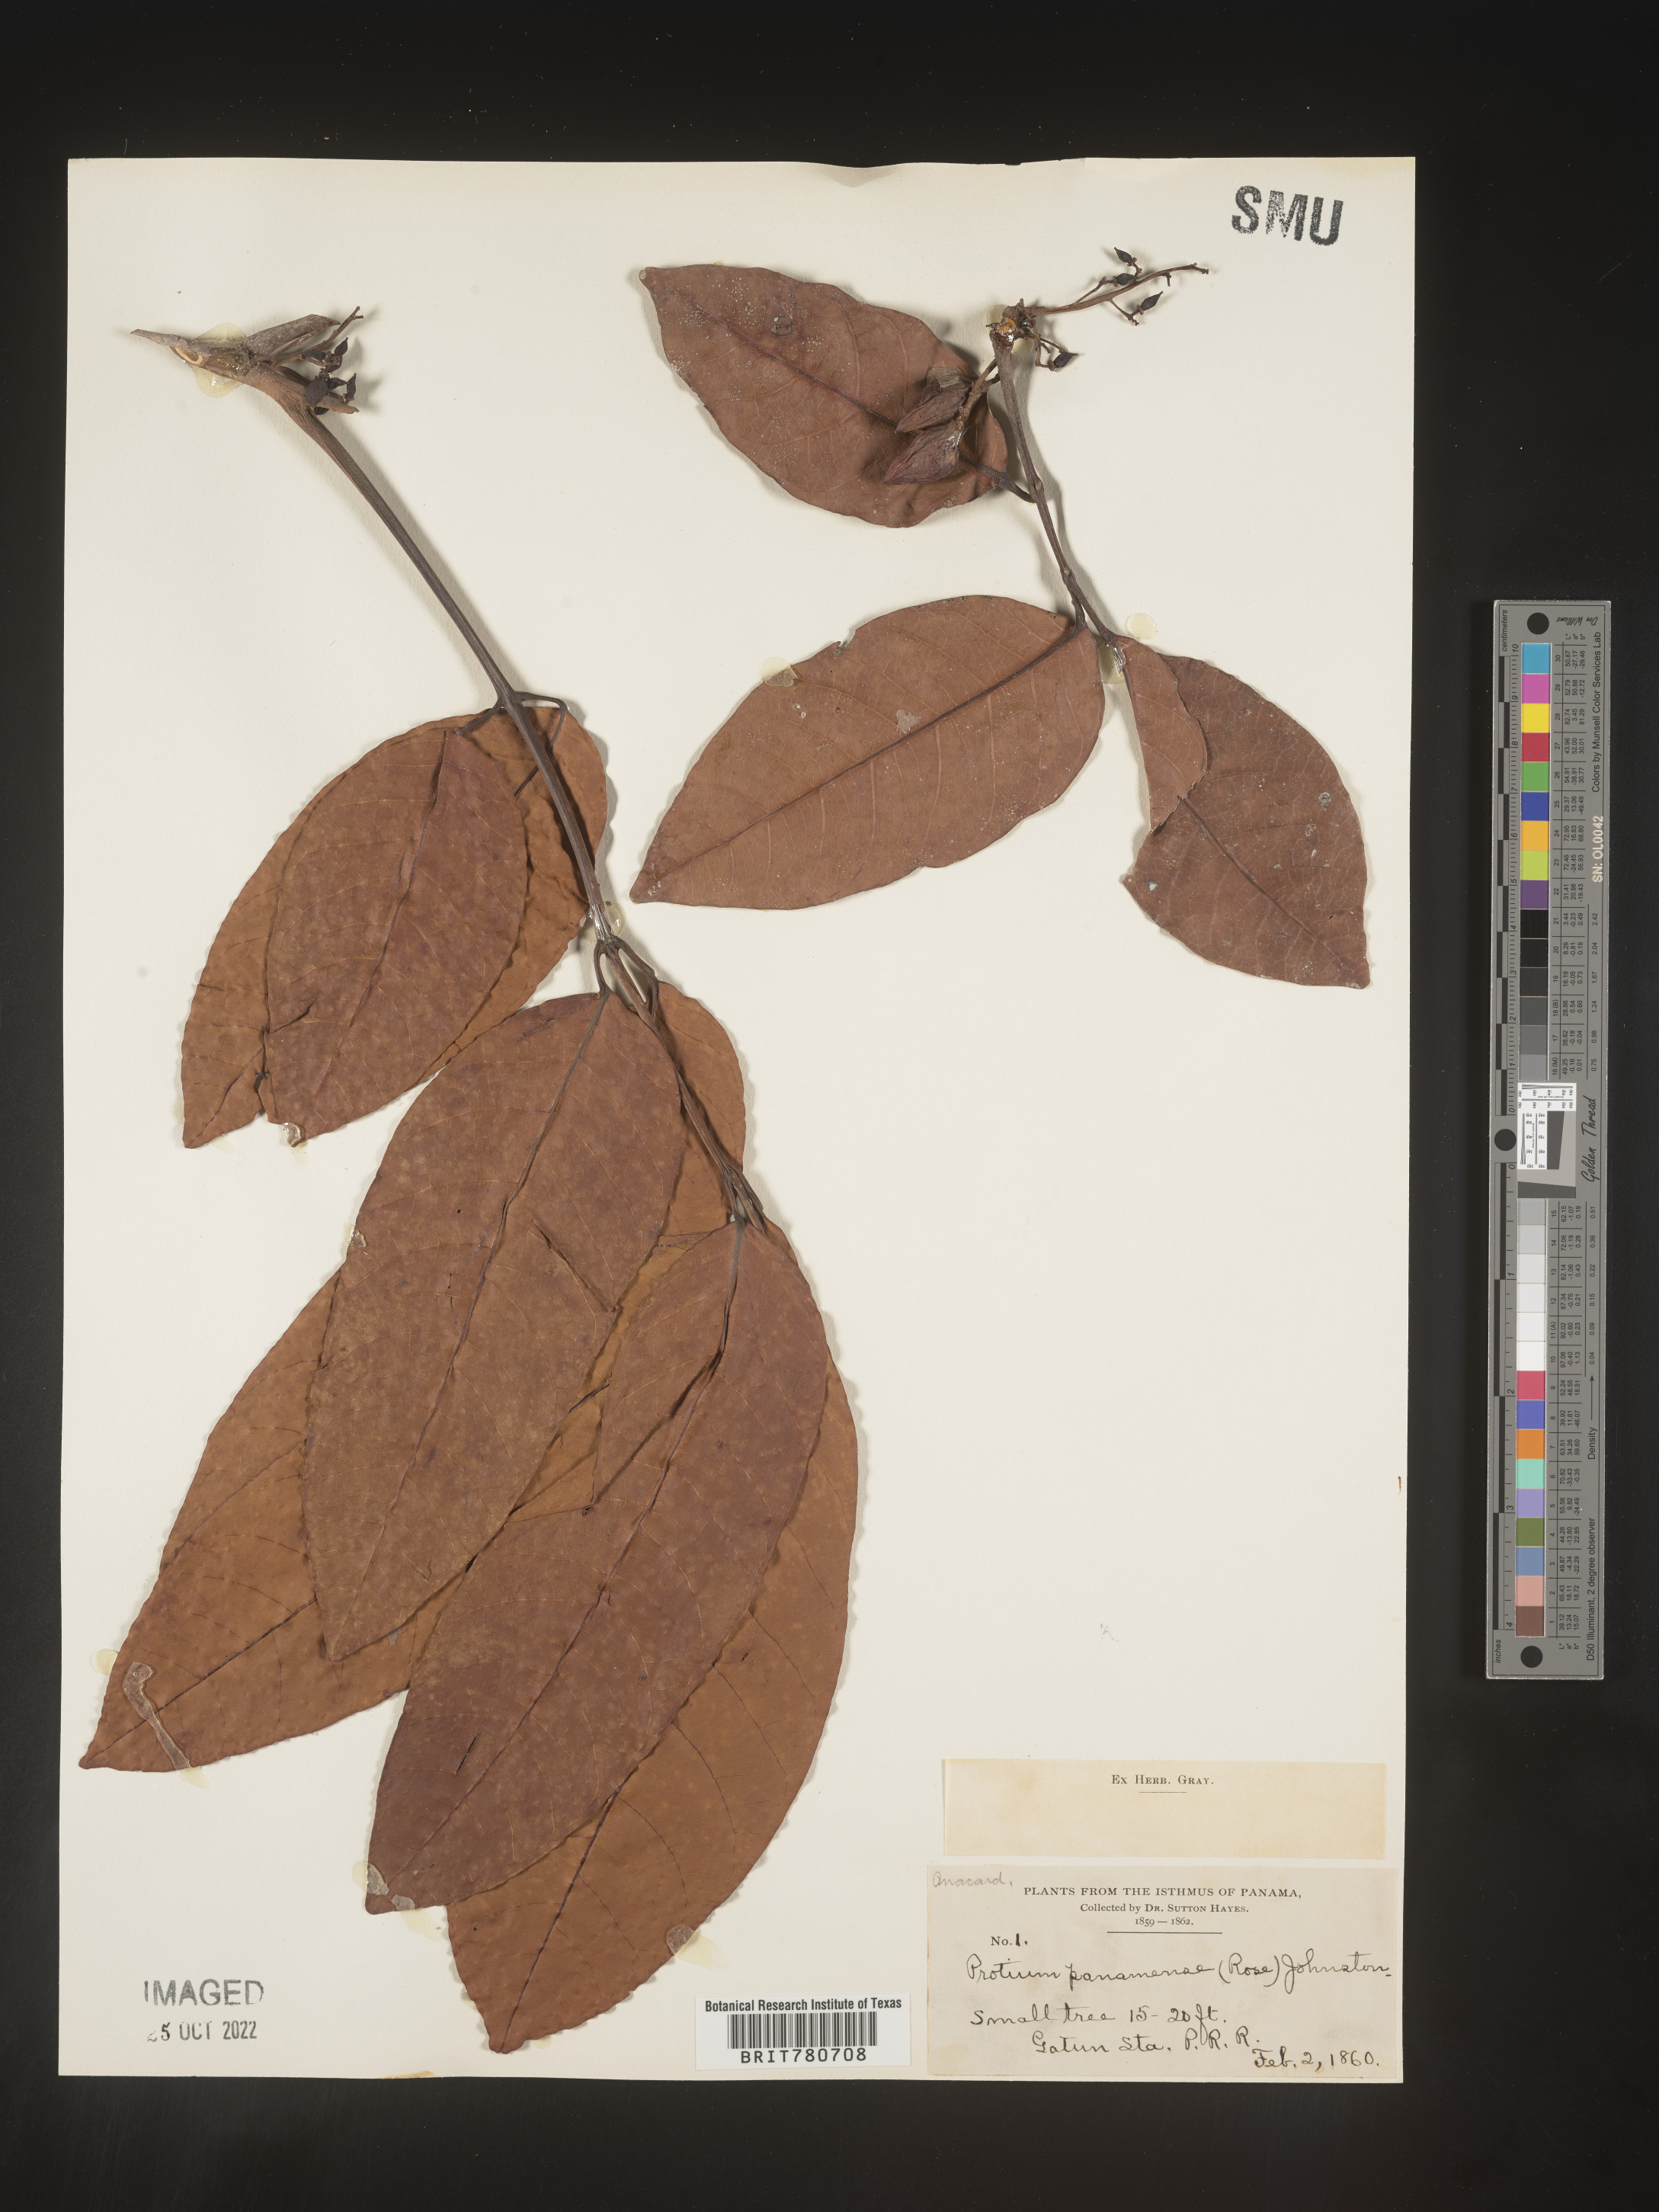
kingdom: Plantae
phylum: Tracheophyta
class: Magnoliopsida
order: Sapindales
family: Burseraceae
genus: Protium
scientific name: Protium
